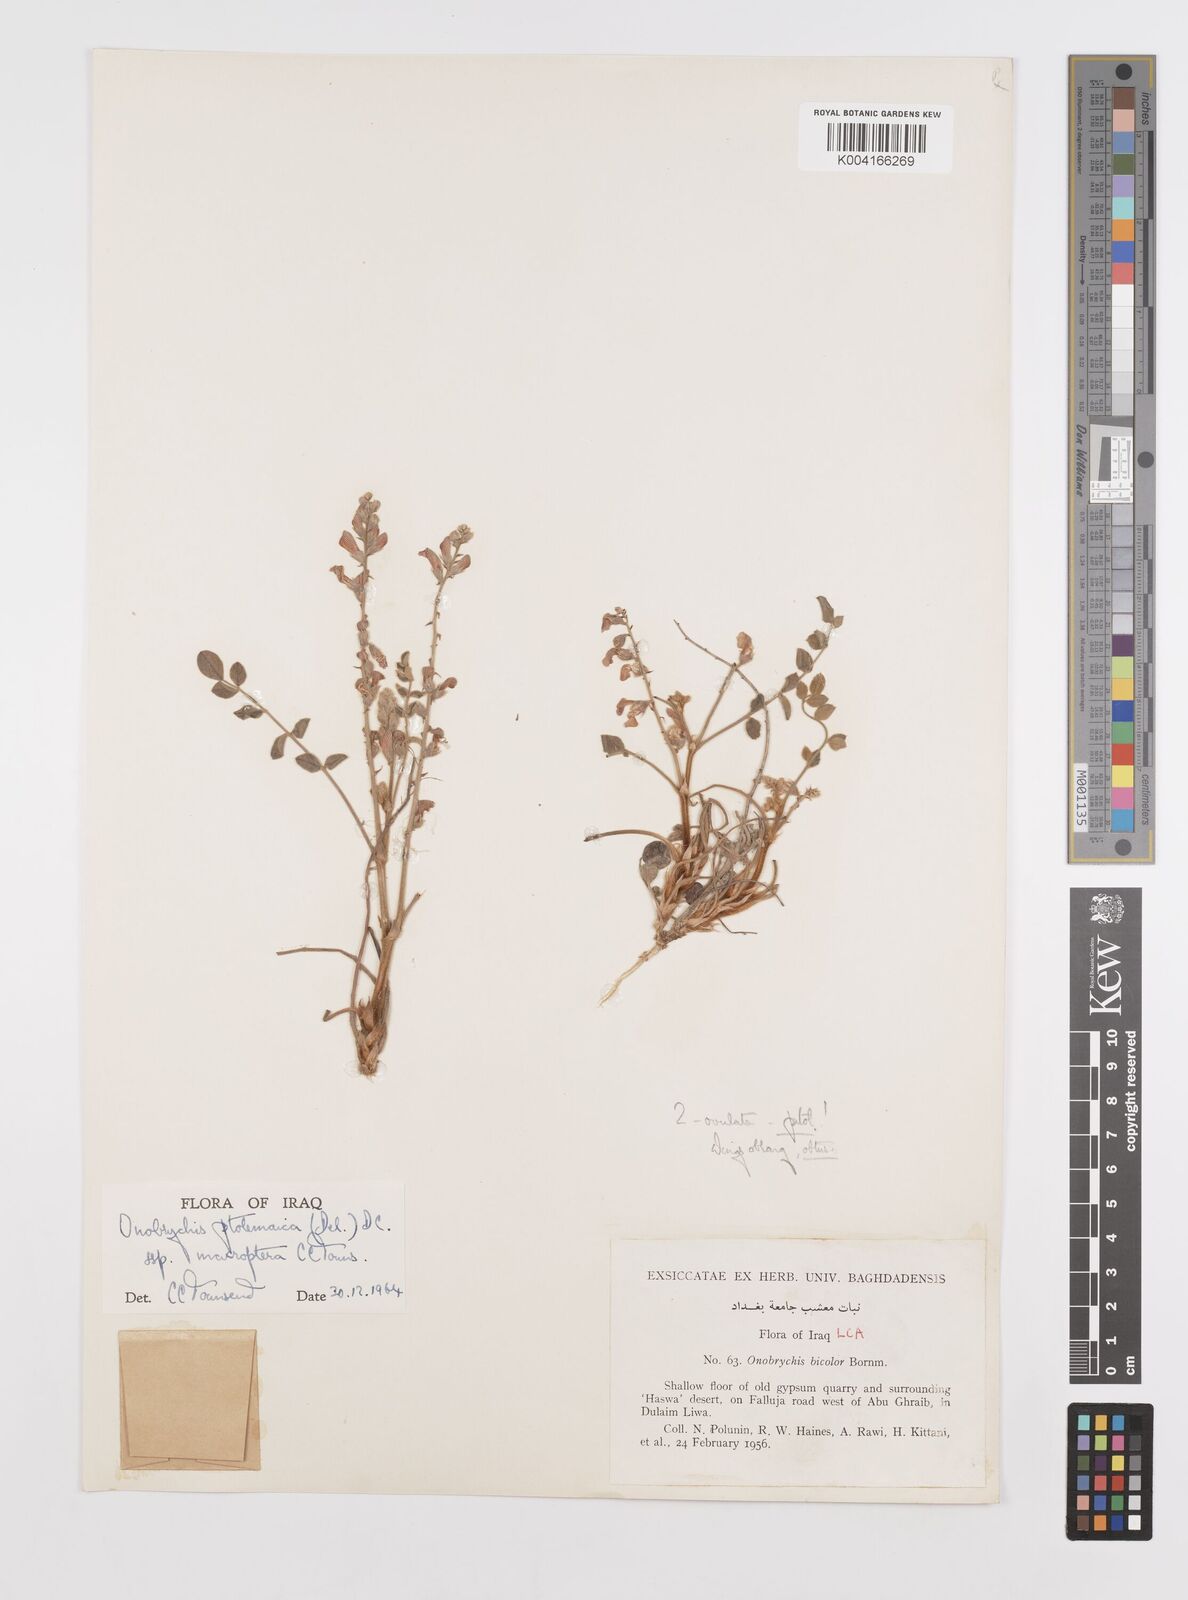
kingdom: Plantae
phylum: Tracheophyta
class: Magnoliopsida
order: Fabales
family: Fabaceae
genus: Onobrychis
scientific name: Onobrychis ptolemaica
